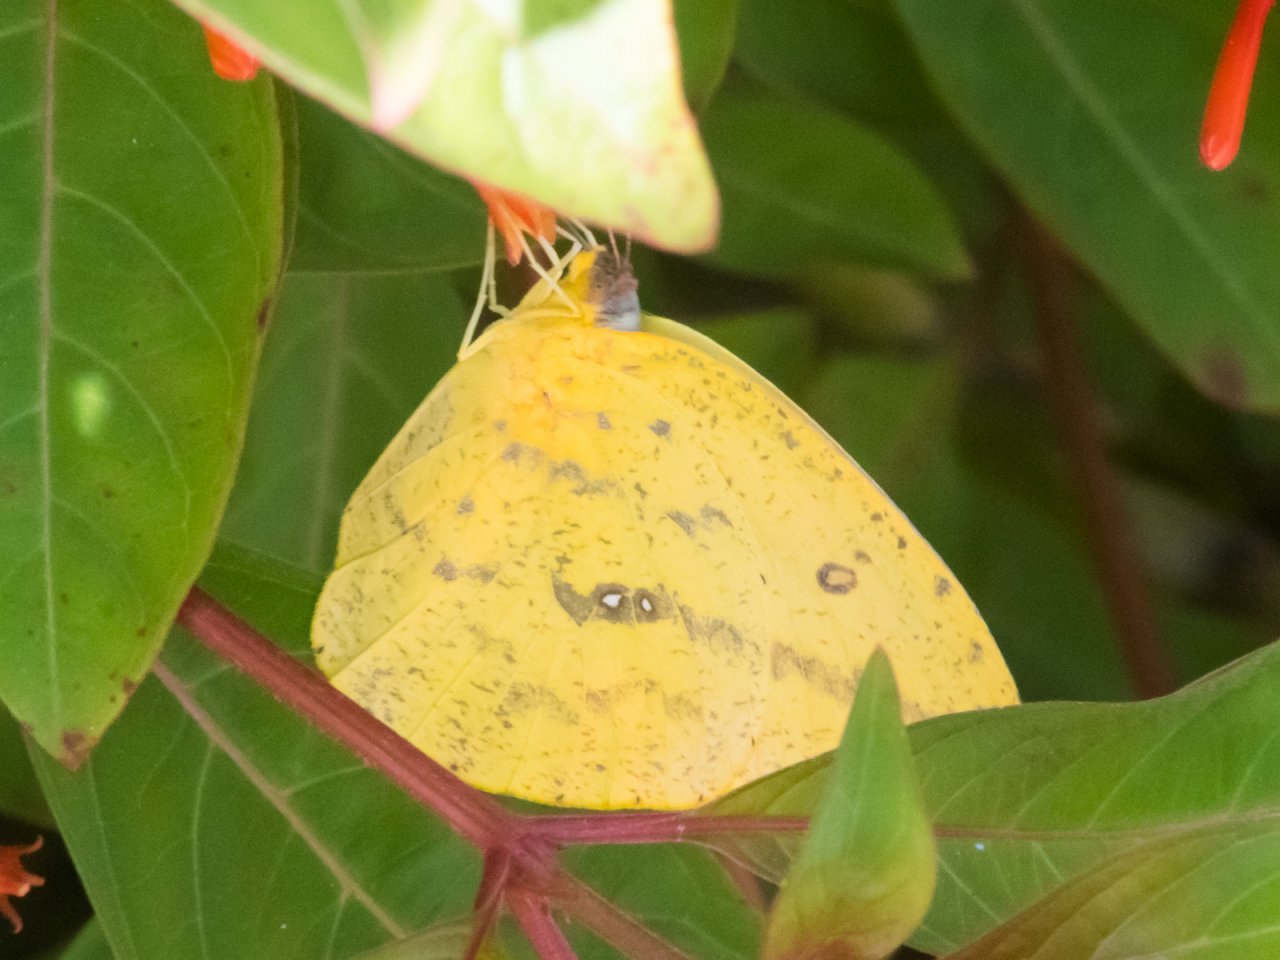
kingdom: Animalia
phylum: Arthropoda
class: Insecta
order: Lepidoptera
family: Pieridae
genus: Phoebis
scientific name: Phoebis agarithe
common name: Large Orange Sulphur
